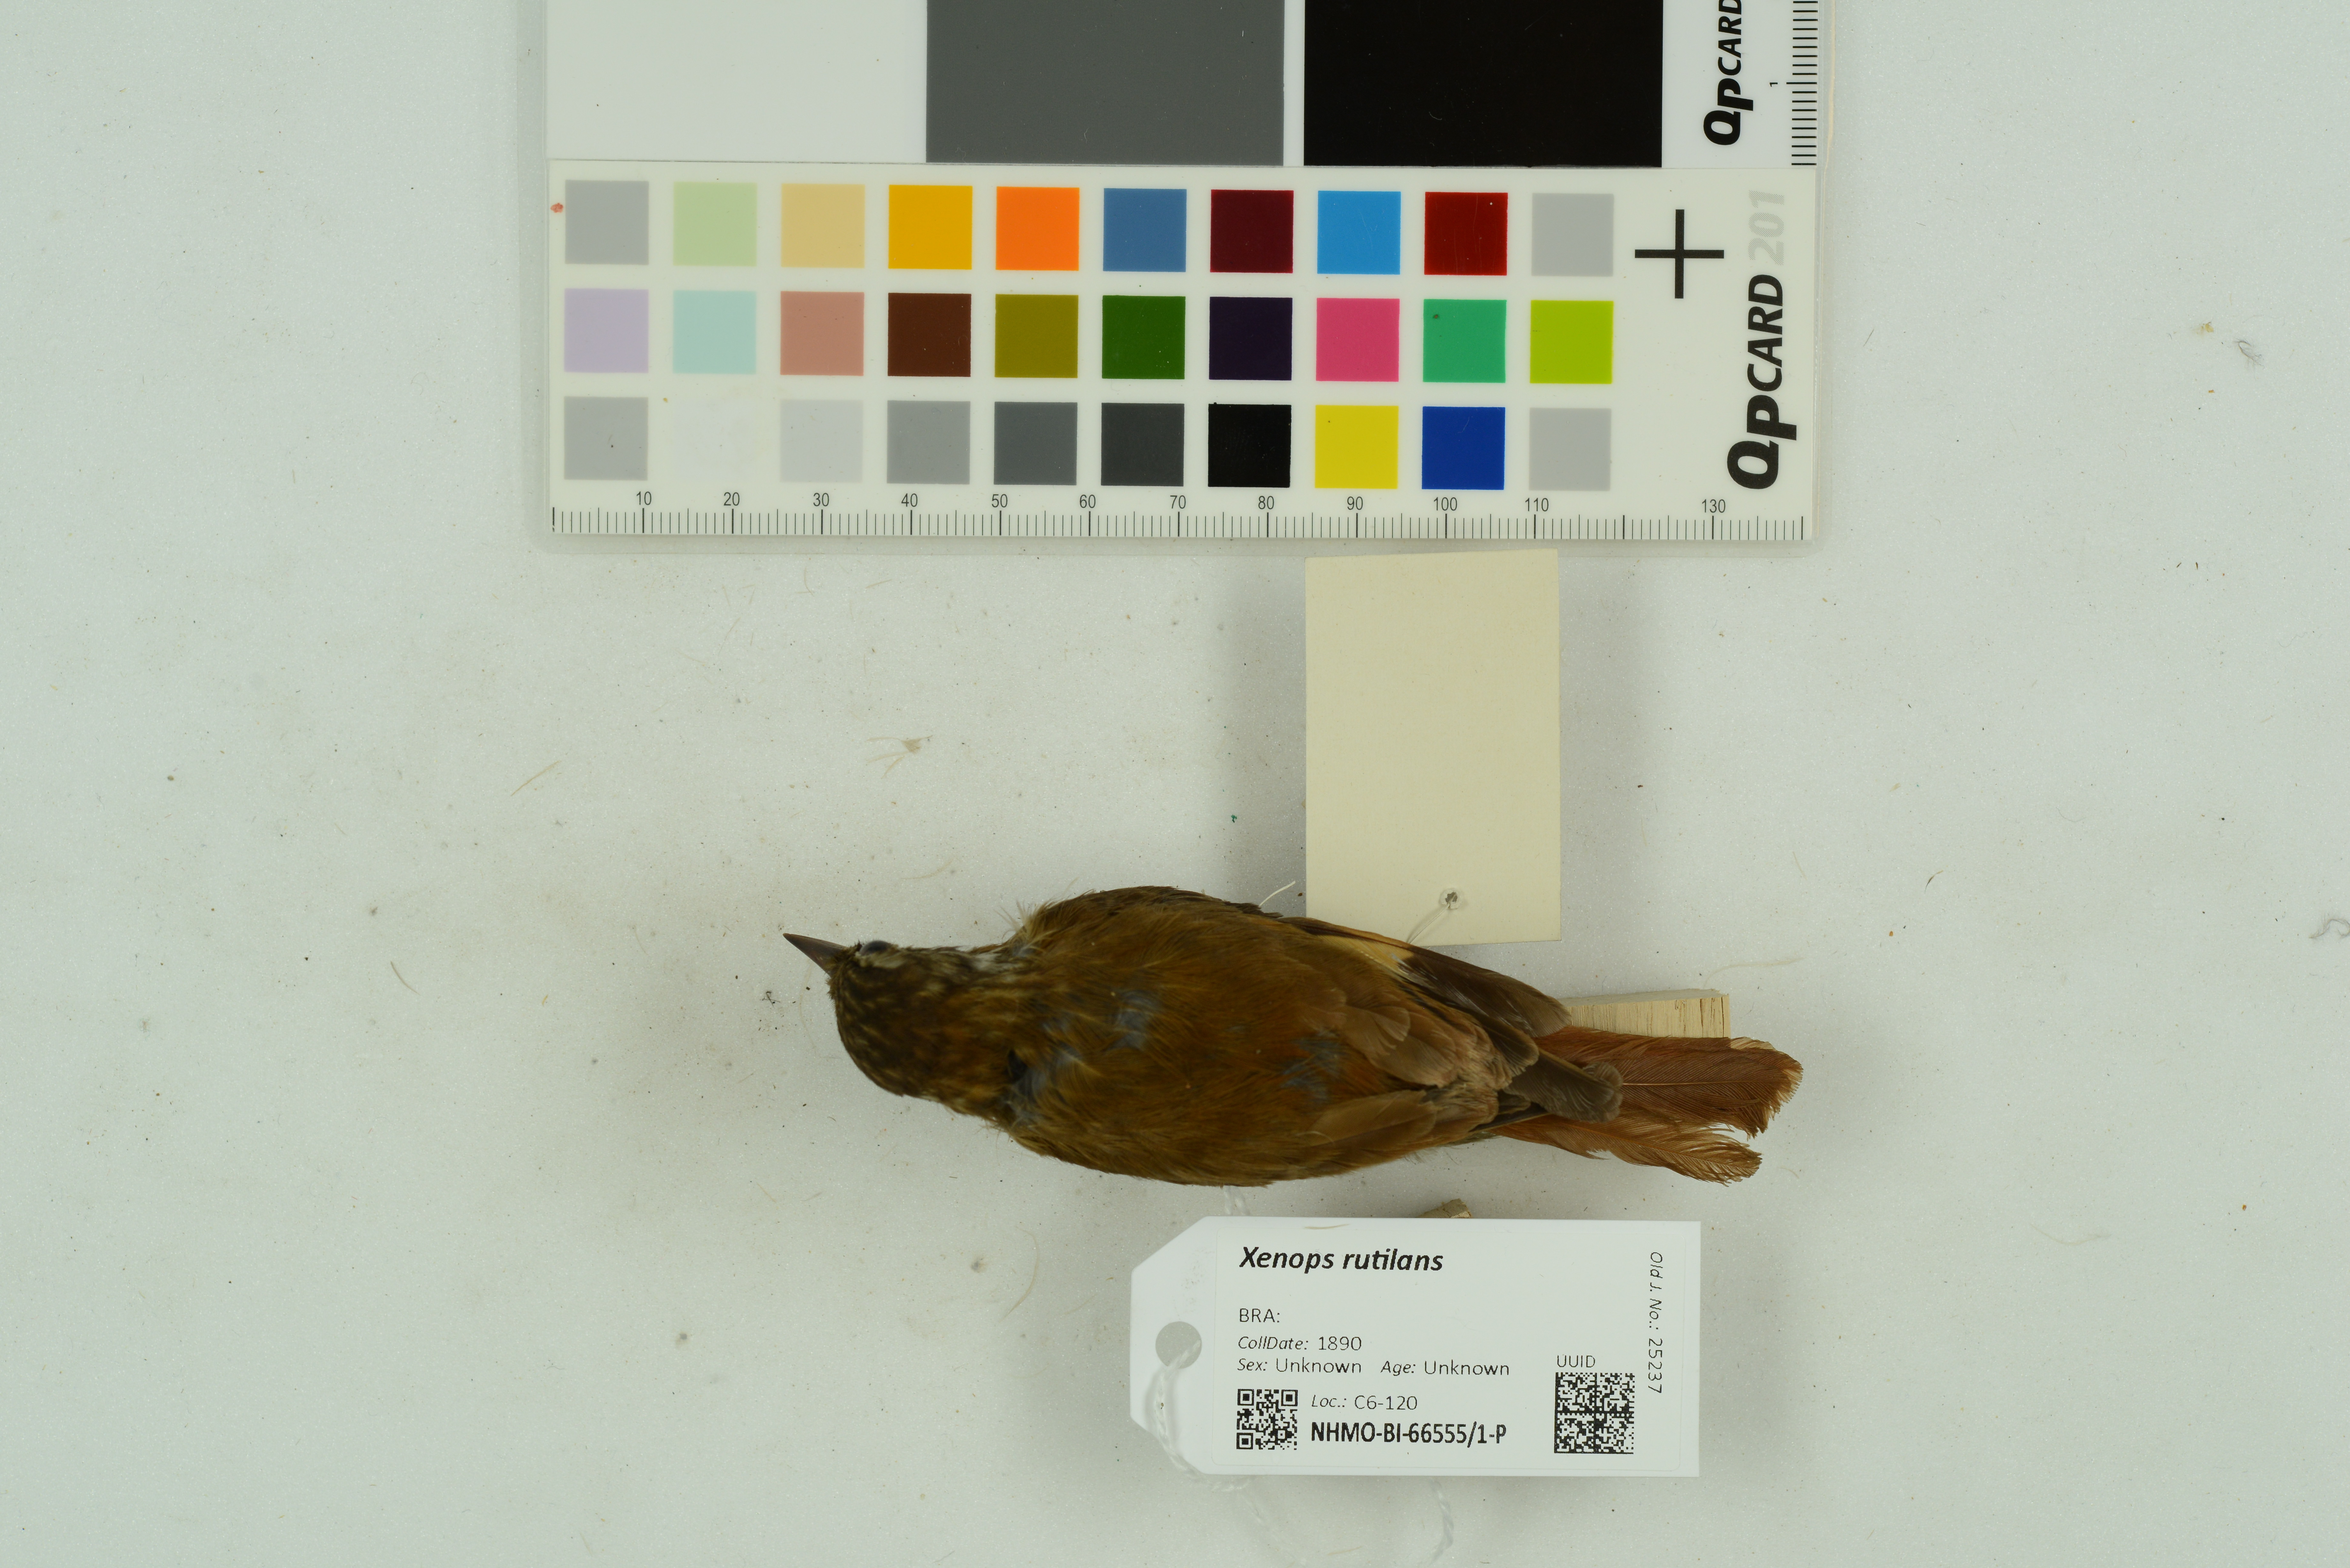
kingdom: Animalia
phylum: Chordata
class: Aves
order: Passeriformes
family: Furnariidae
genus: Xenops
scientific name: Xenops rutilans
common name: Streaked xenops
